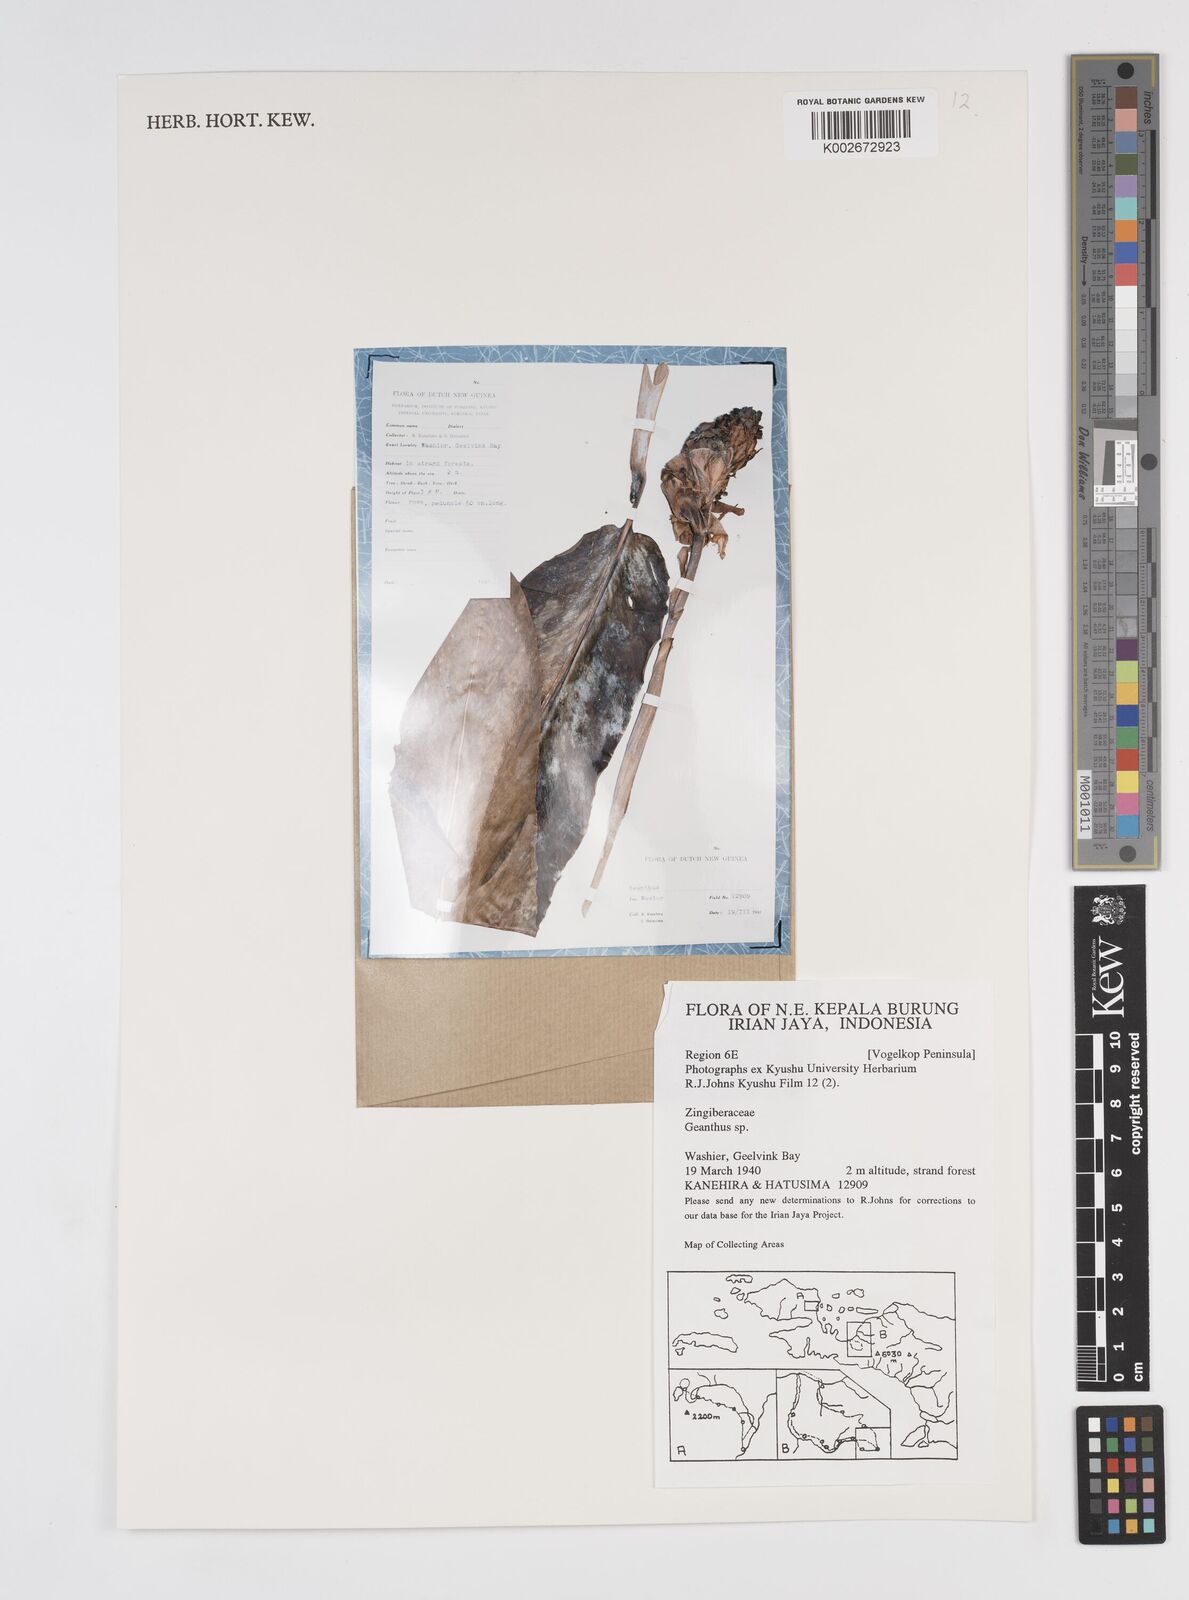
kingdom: Plantae
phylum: Tracheophyta
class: Liliopsida
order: Zingiberales
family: Zingiberaceae
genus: Etlingera
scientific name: Etlingera
